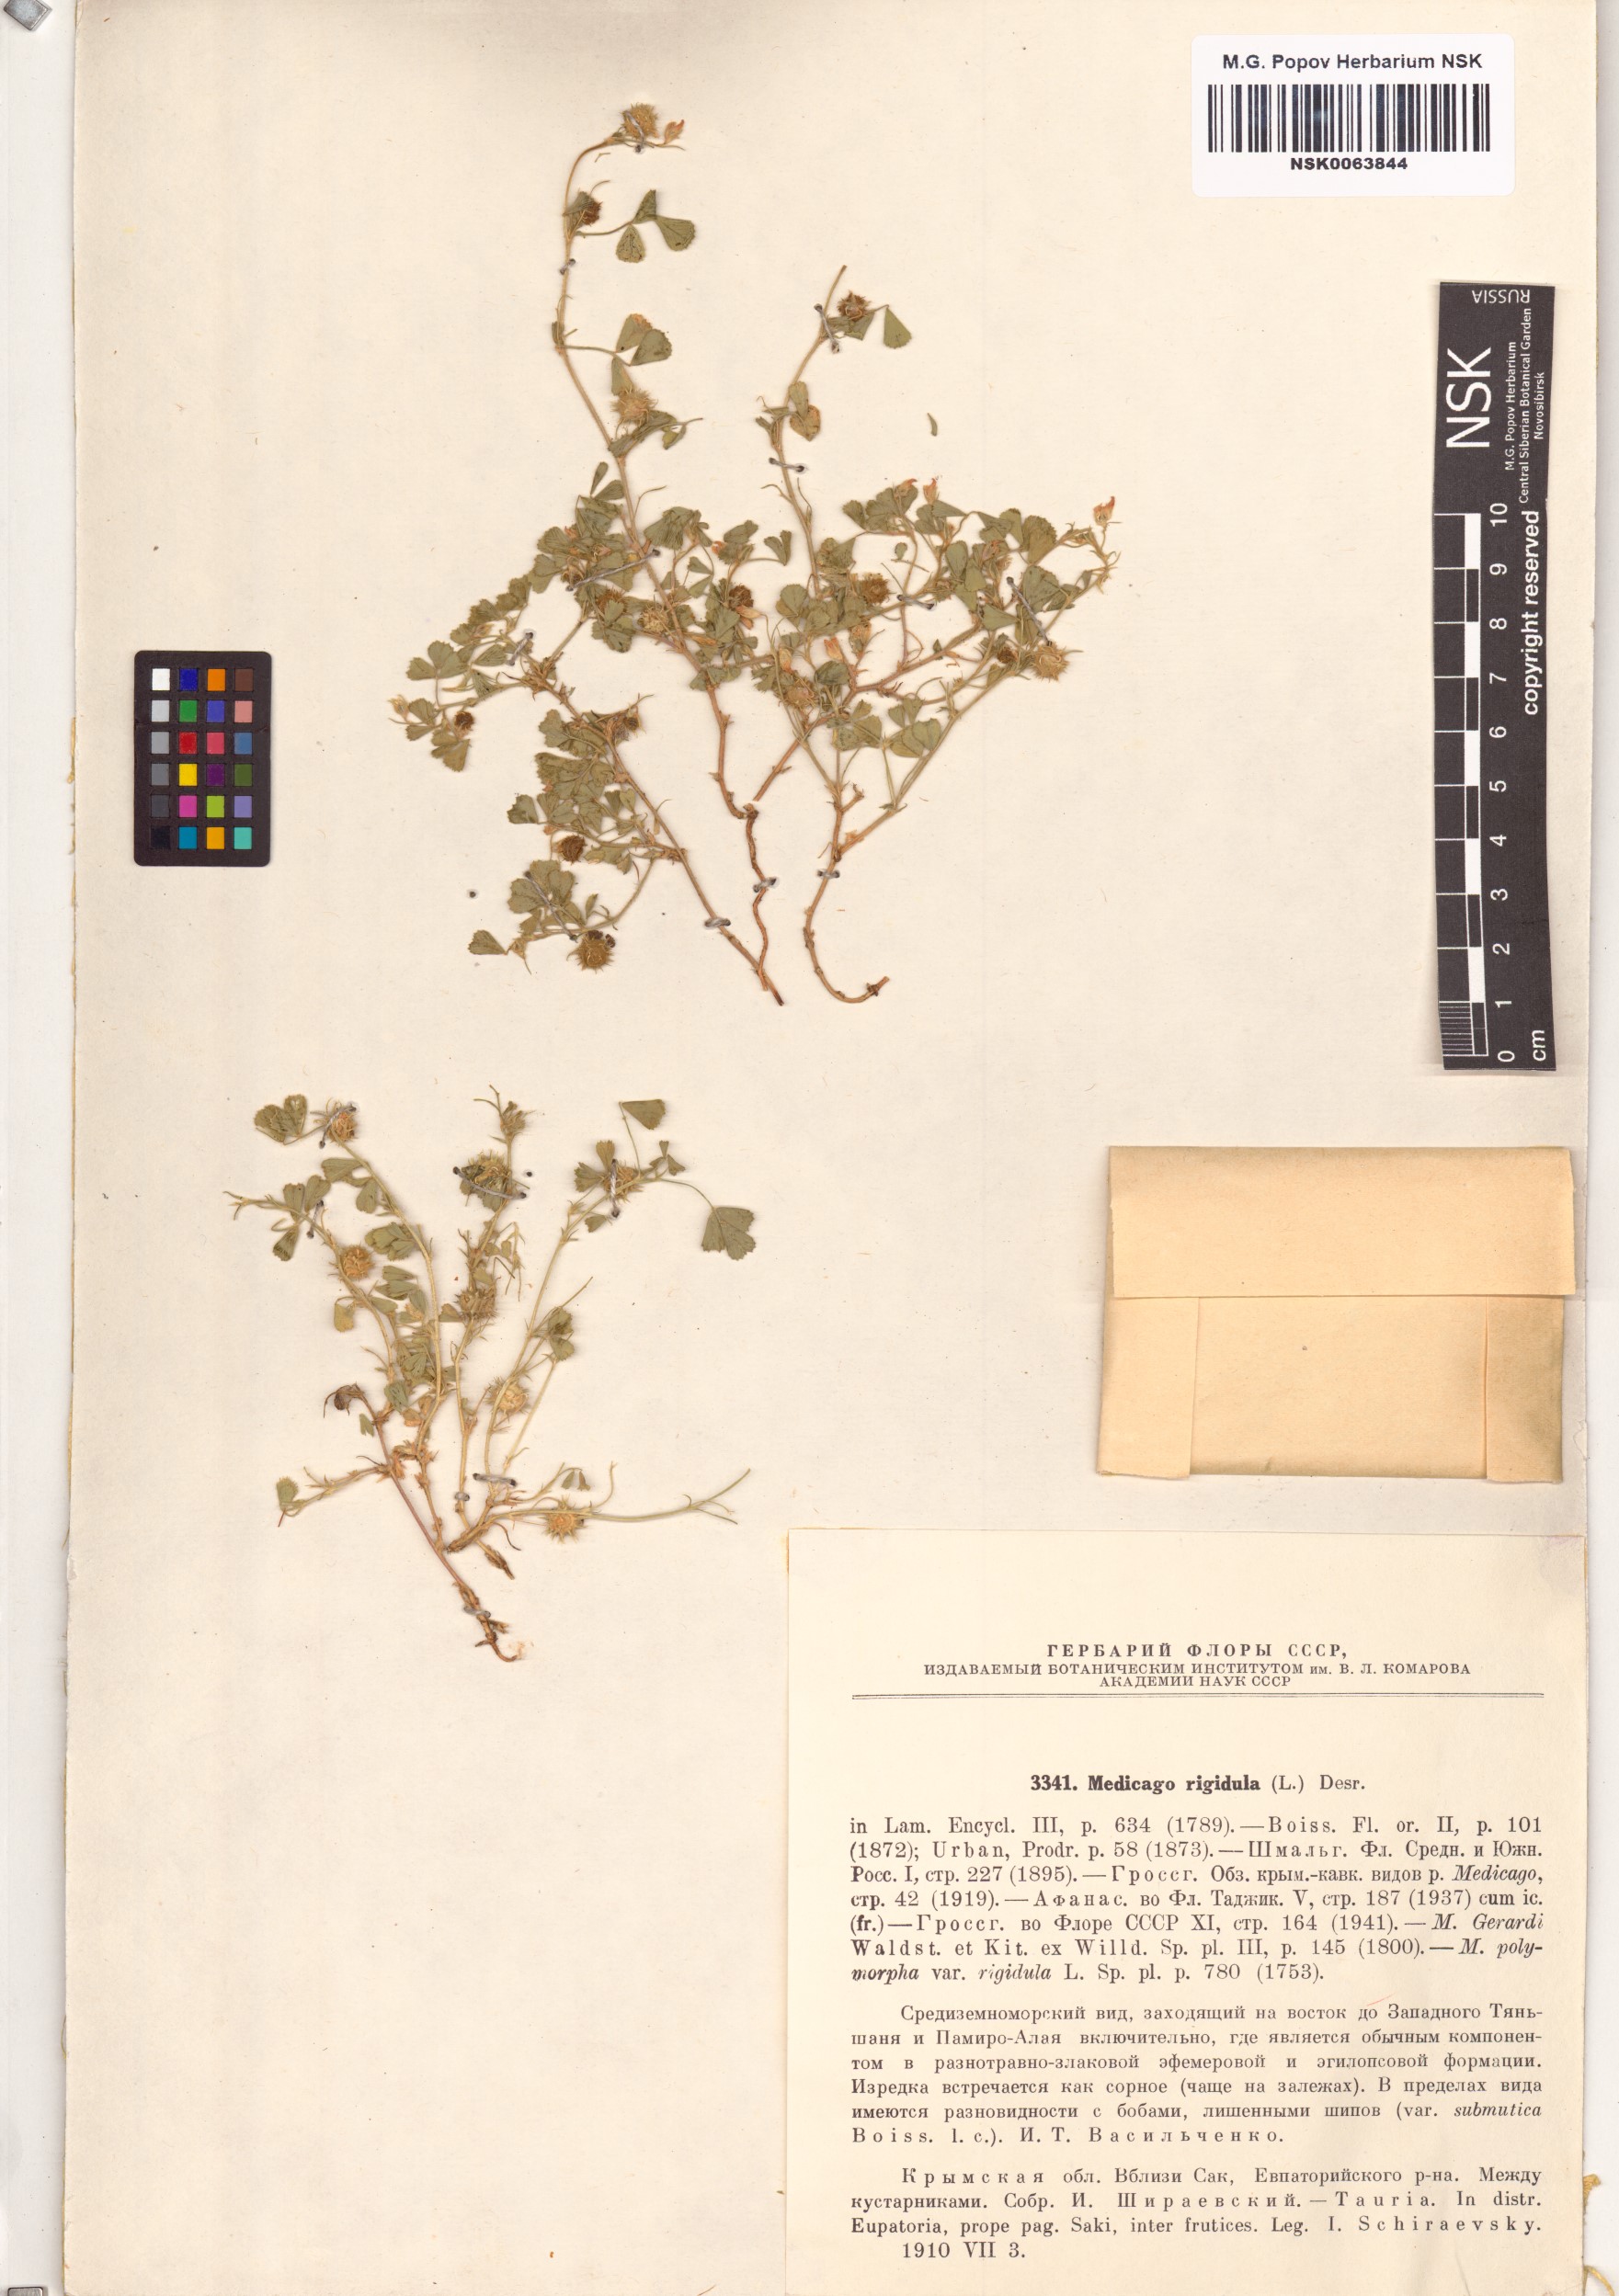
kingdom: Plantae
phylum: Tracheophyta
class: Magnoliopsida
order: Fabales
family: Fabaceae
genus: Medicago
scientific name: Medicago rigidula
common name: Tifton medic
